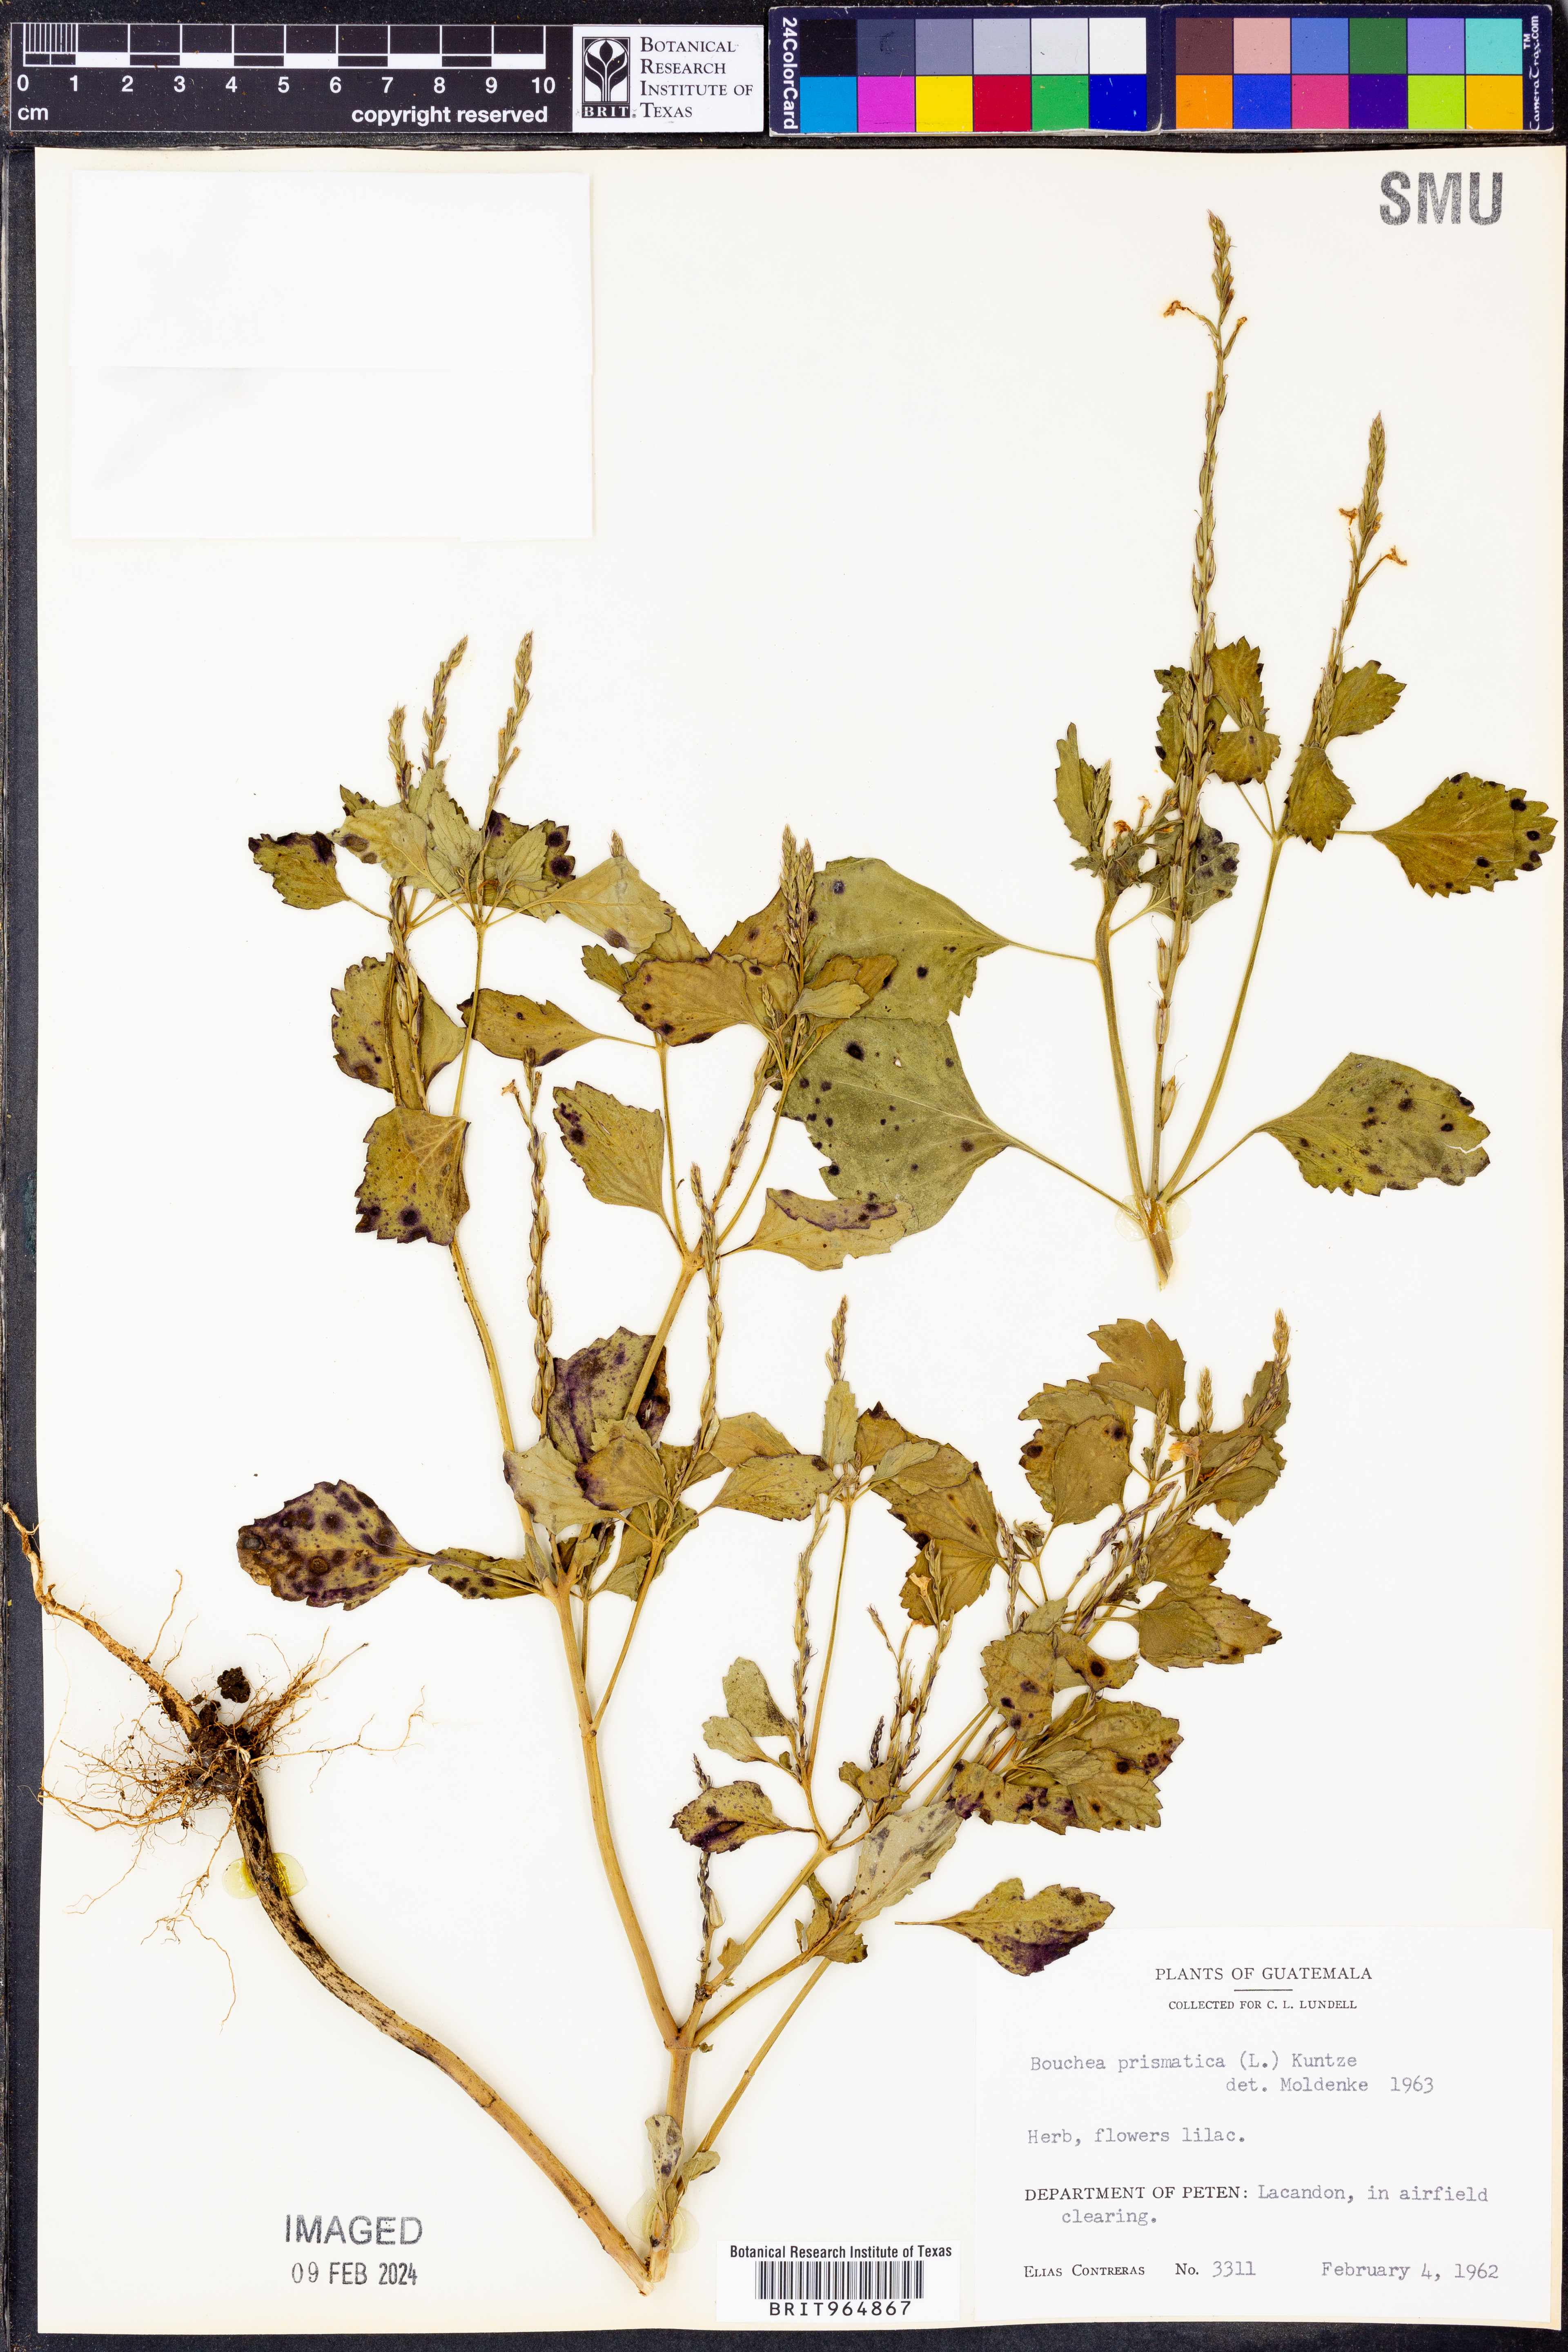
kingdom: Plantae
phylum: Tracheophyta
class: Magnoliopsida
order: Lamiales
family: Verbenaceae
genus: Bouchea
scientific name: Bouchea
